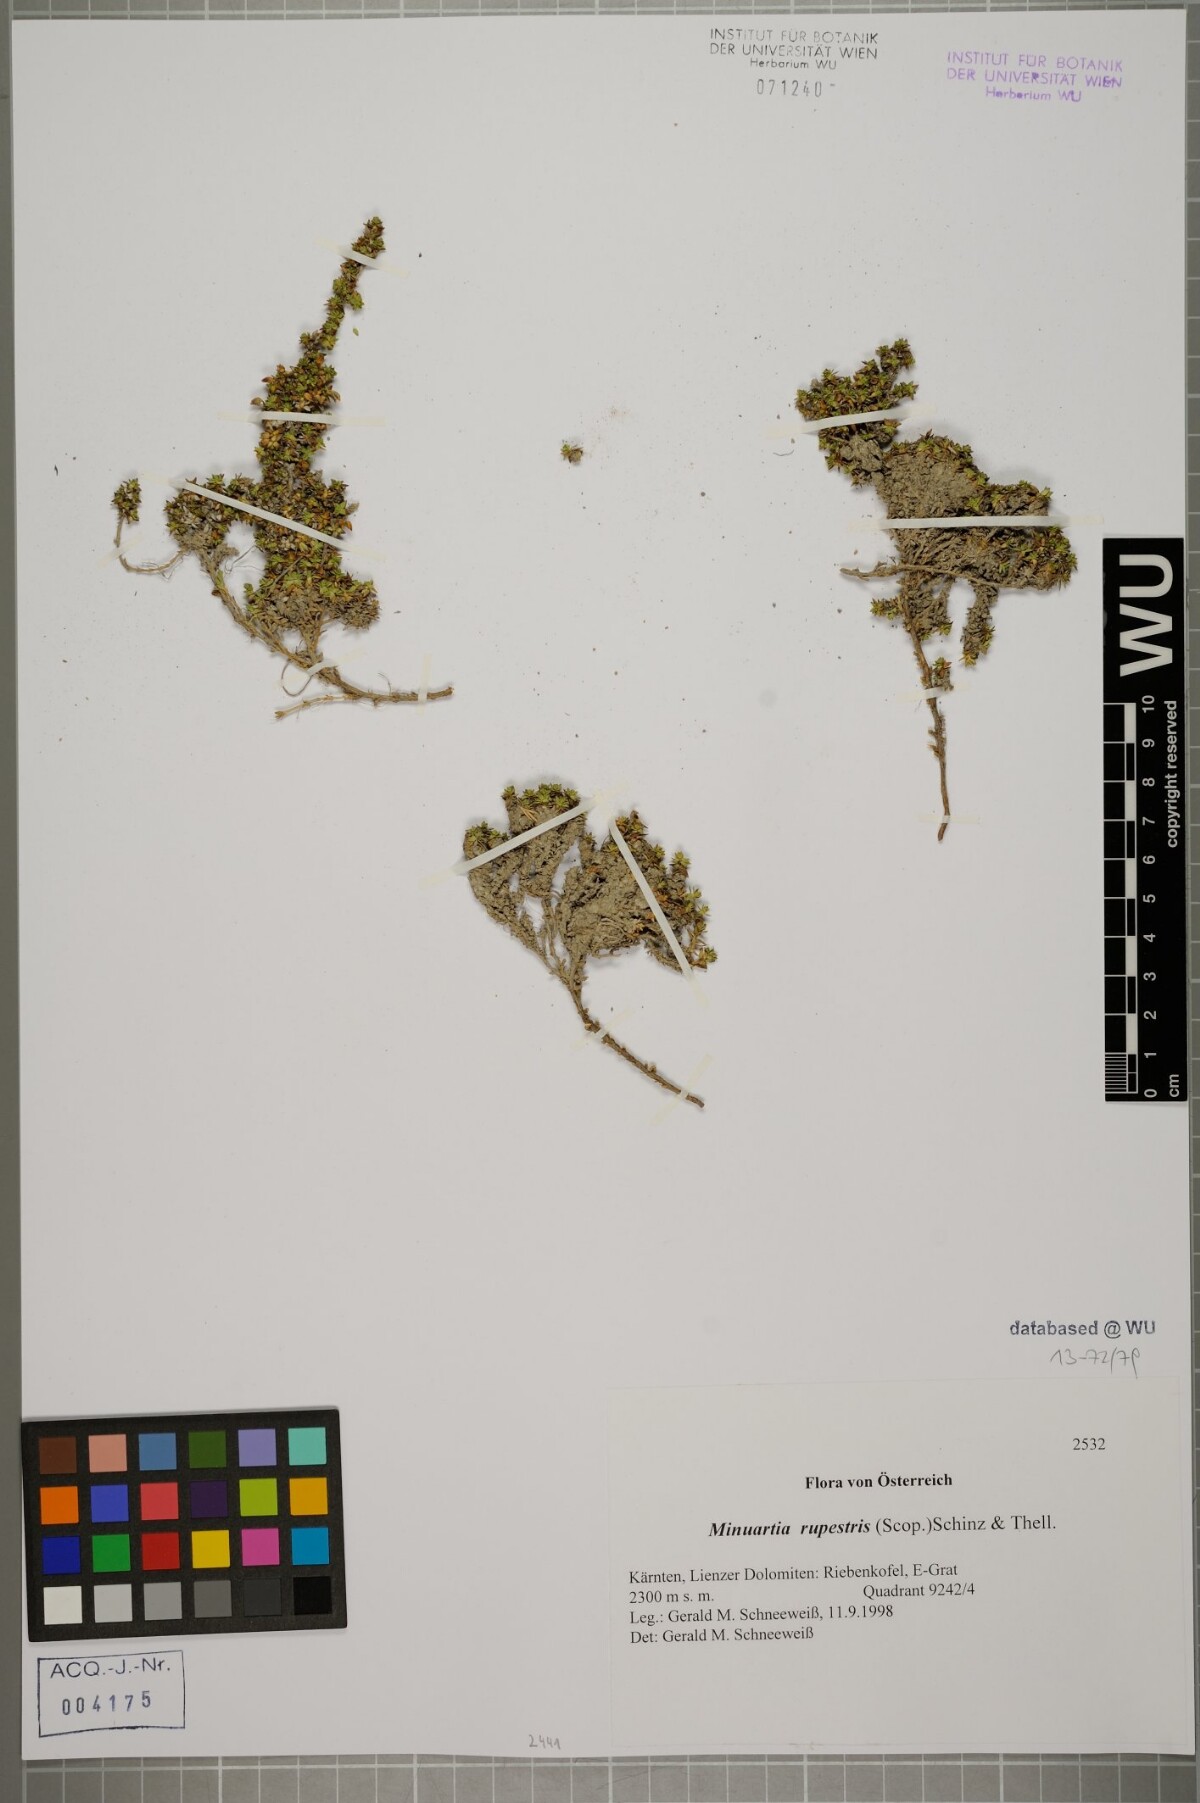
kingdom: Plantae
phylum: Tracheophyta
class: Magnoliopsida
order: Caryophyllales
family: Caryophyllaceae
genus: Facchinia
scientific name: Facchinia rupestris
